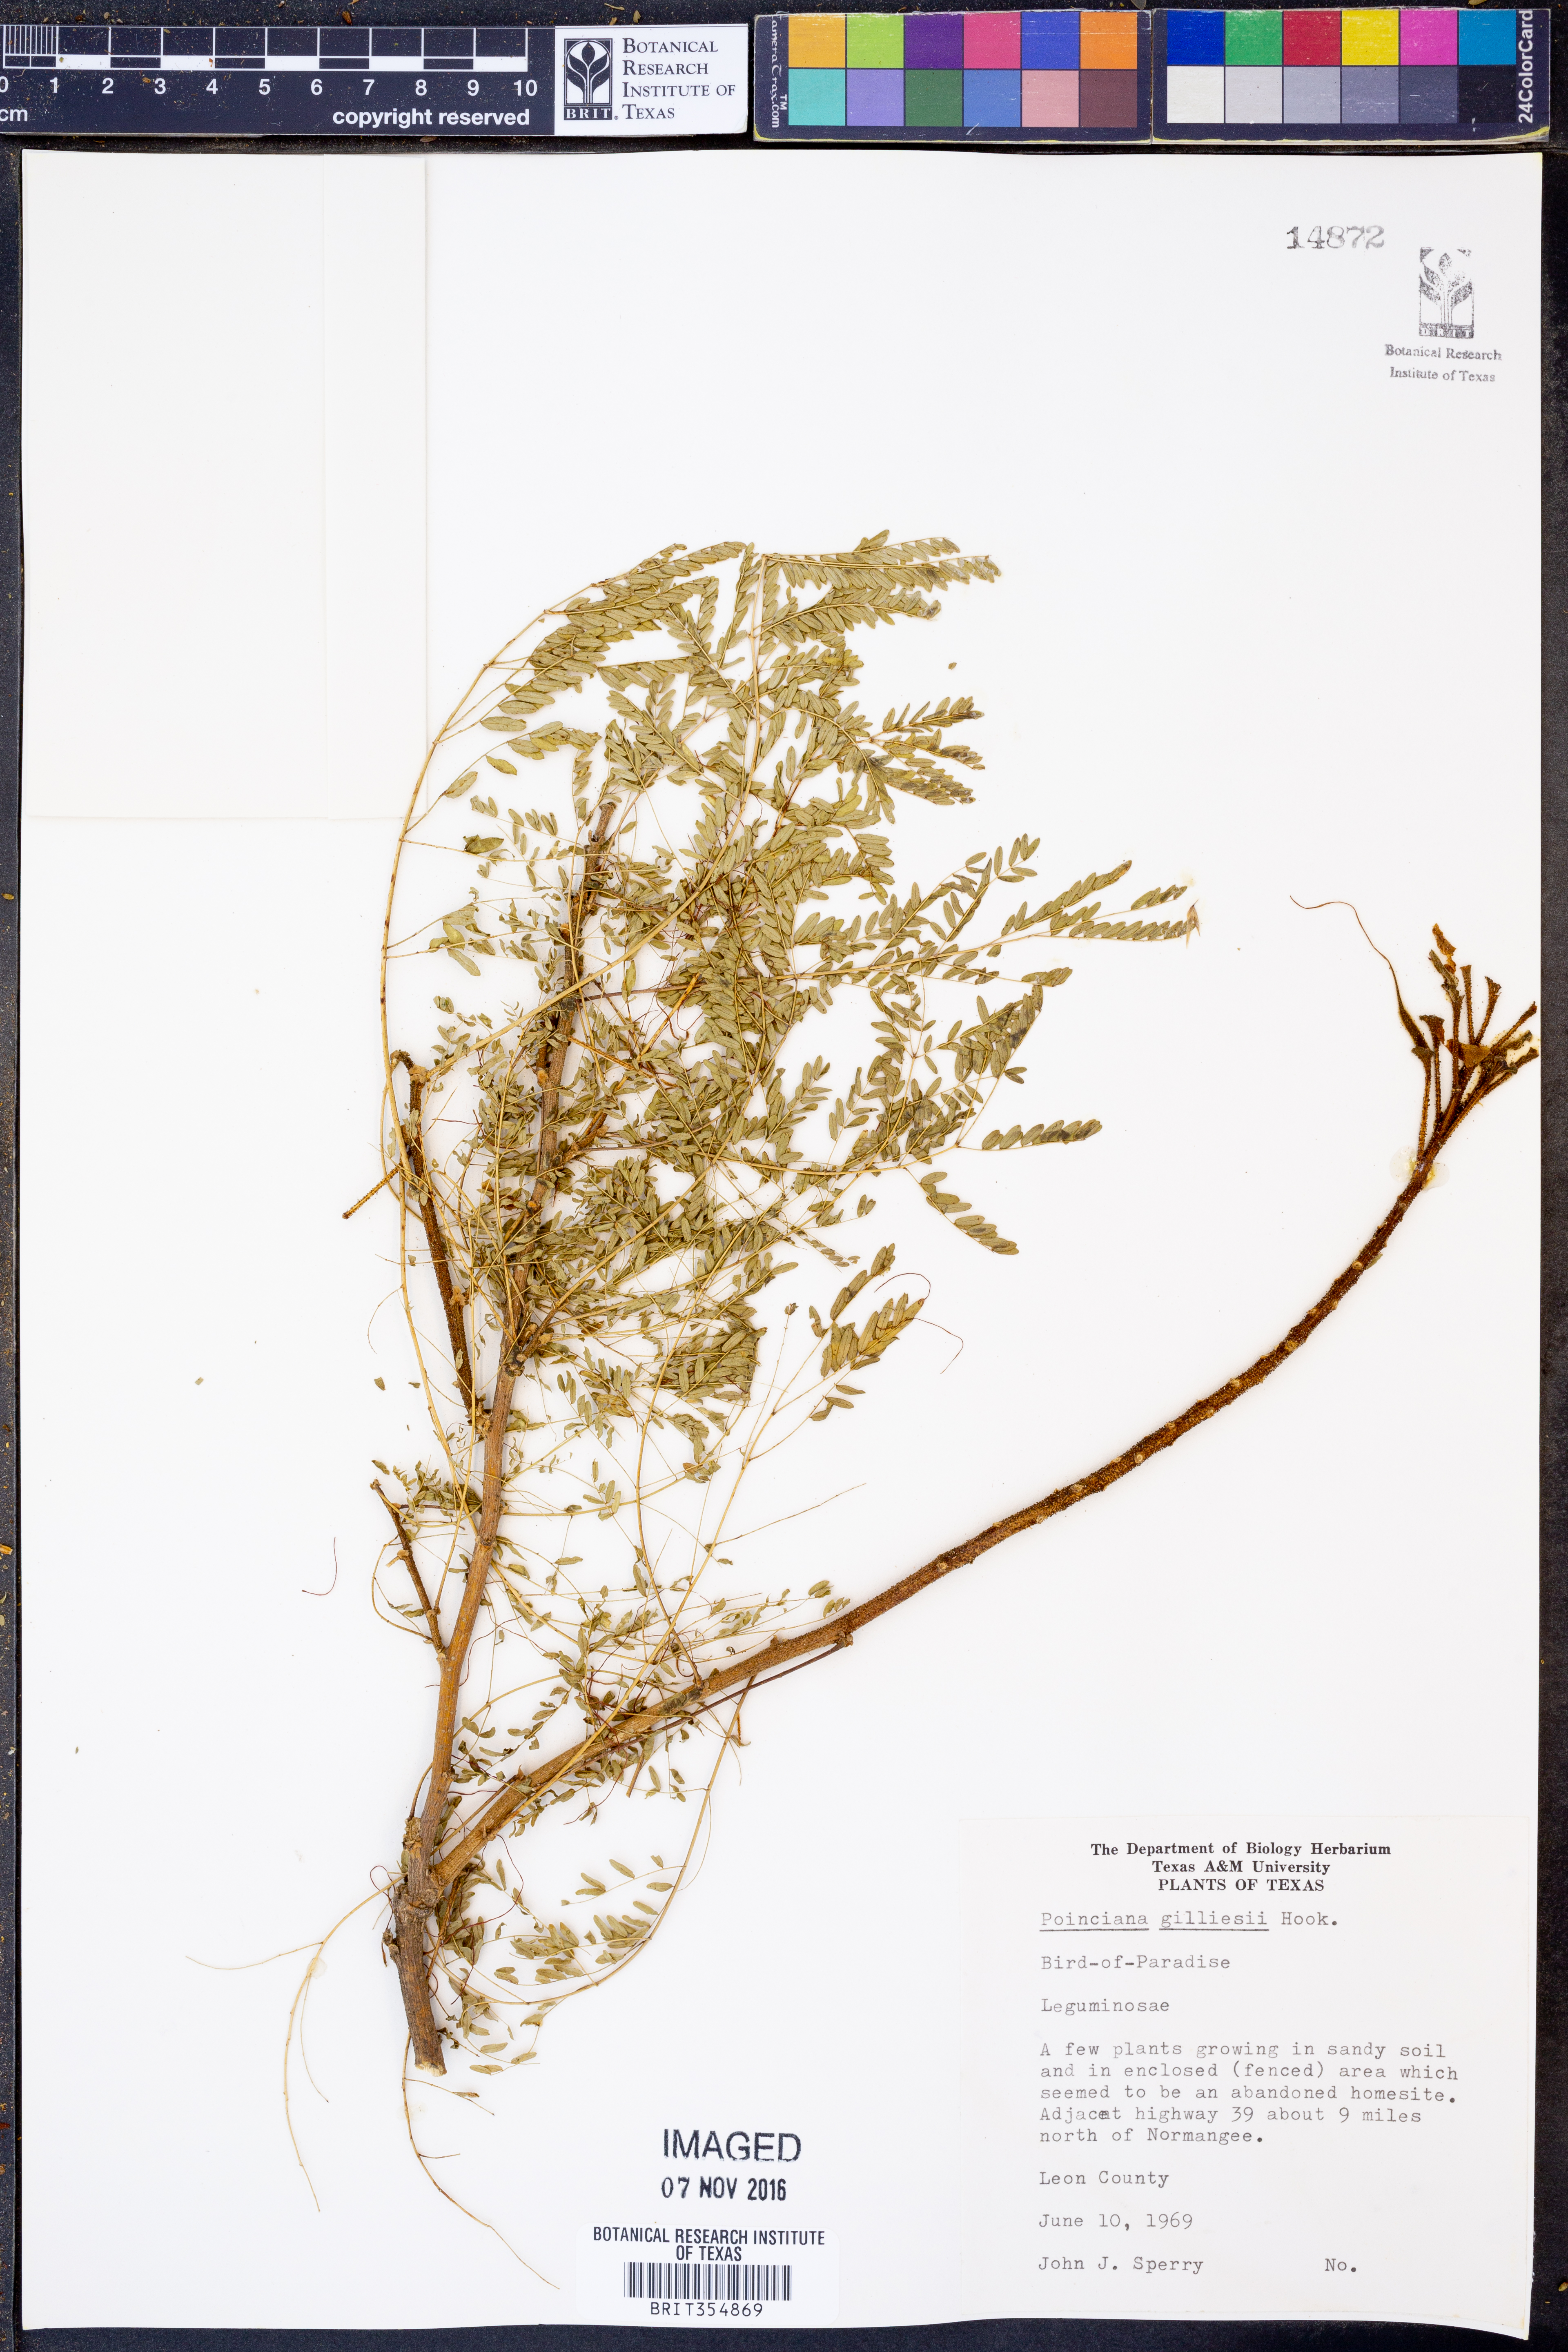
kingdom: Plantae
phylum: Tracheophyta
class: Magnoliopsida
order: Fabales
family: Fabaceae
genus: Erythrostemon
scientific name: Erythrostemon gilliesii
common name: Bird-of-paradise shrub
